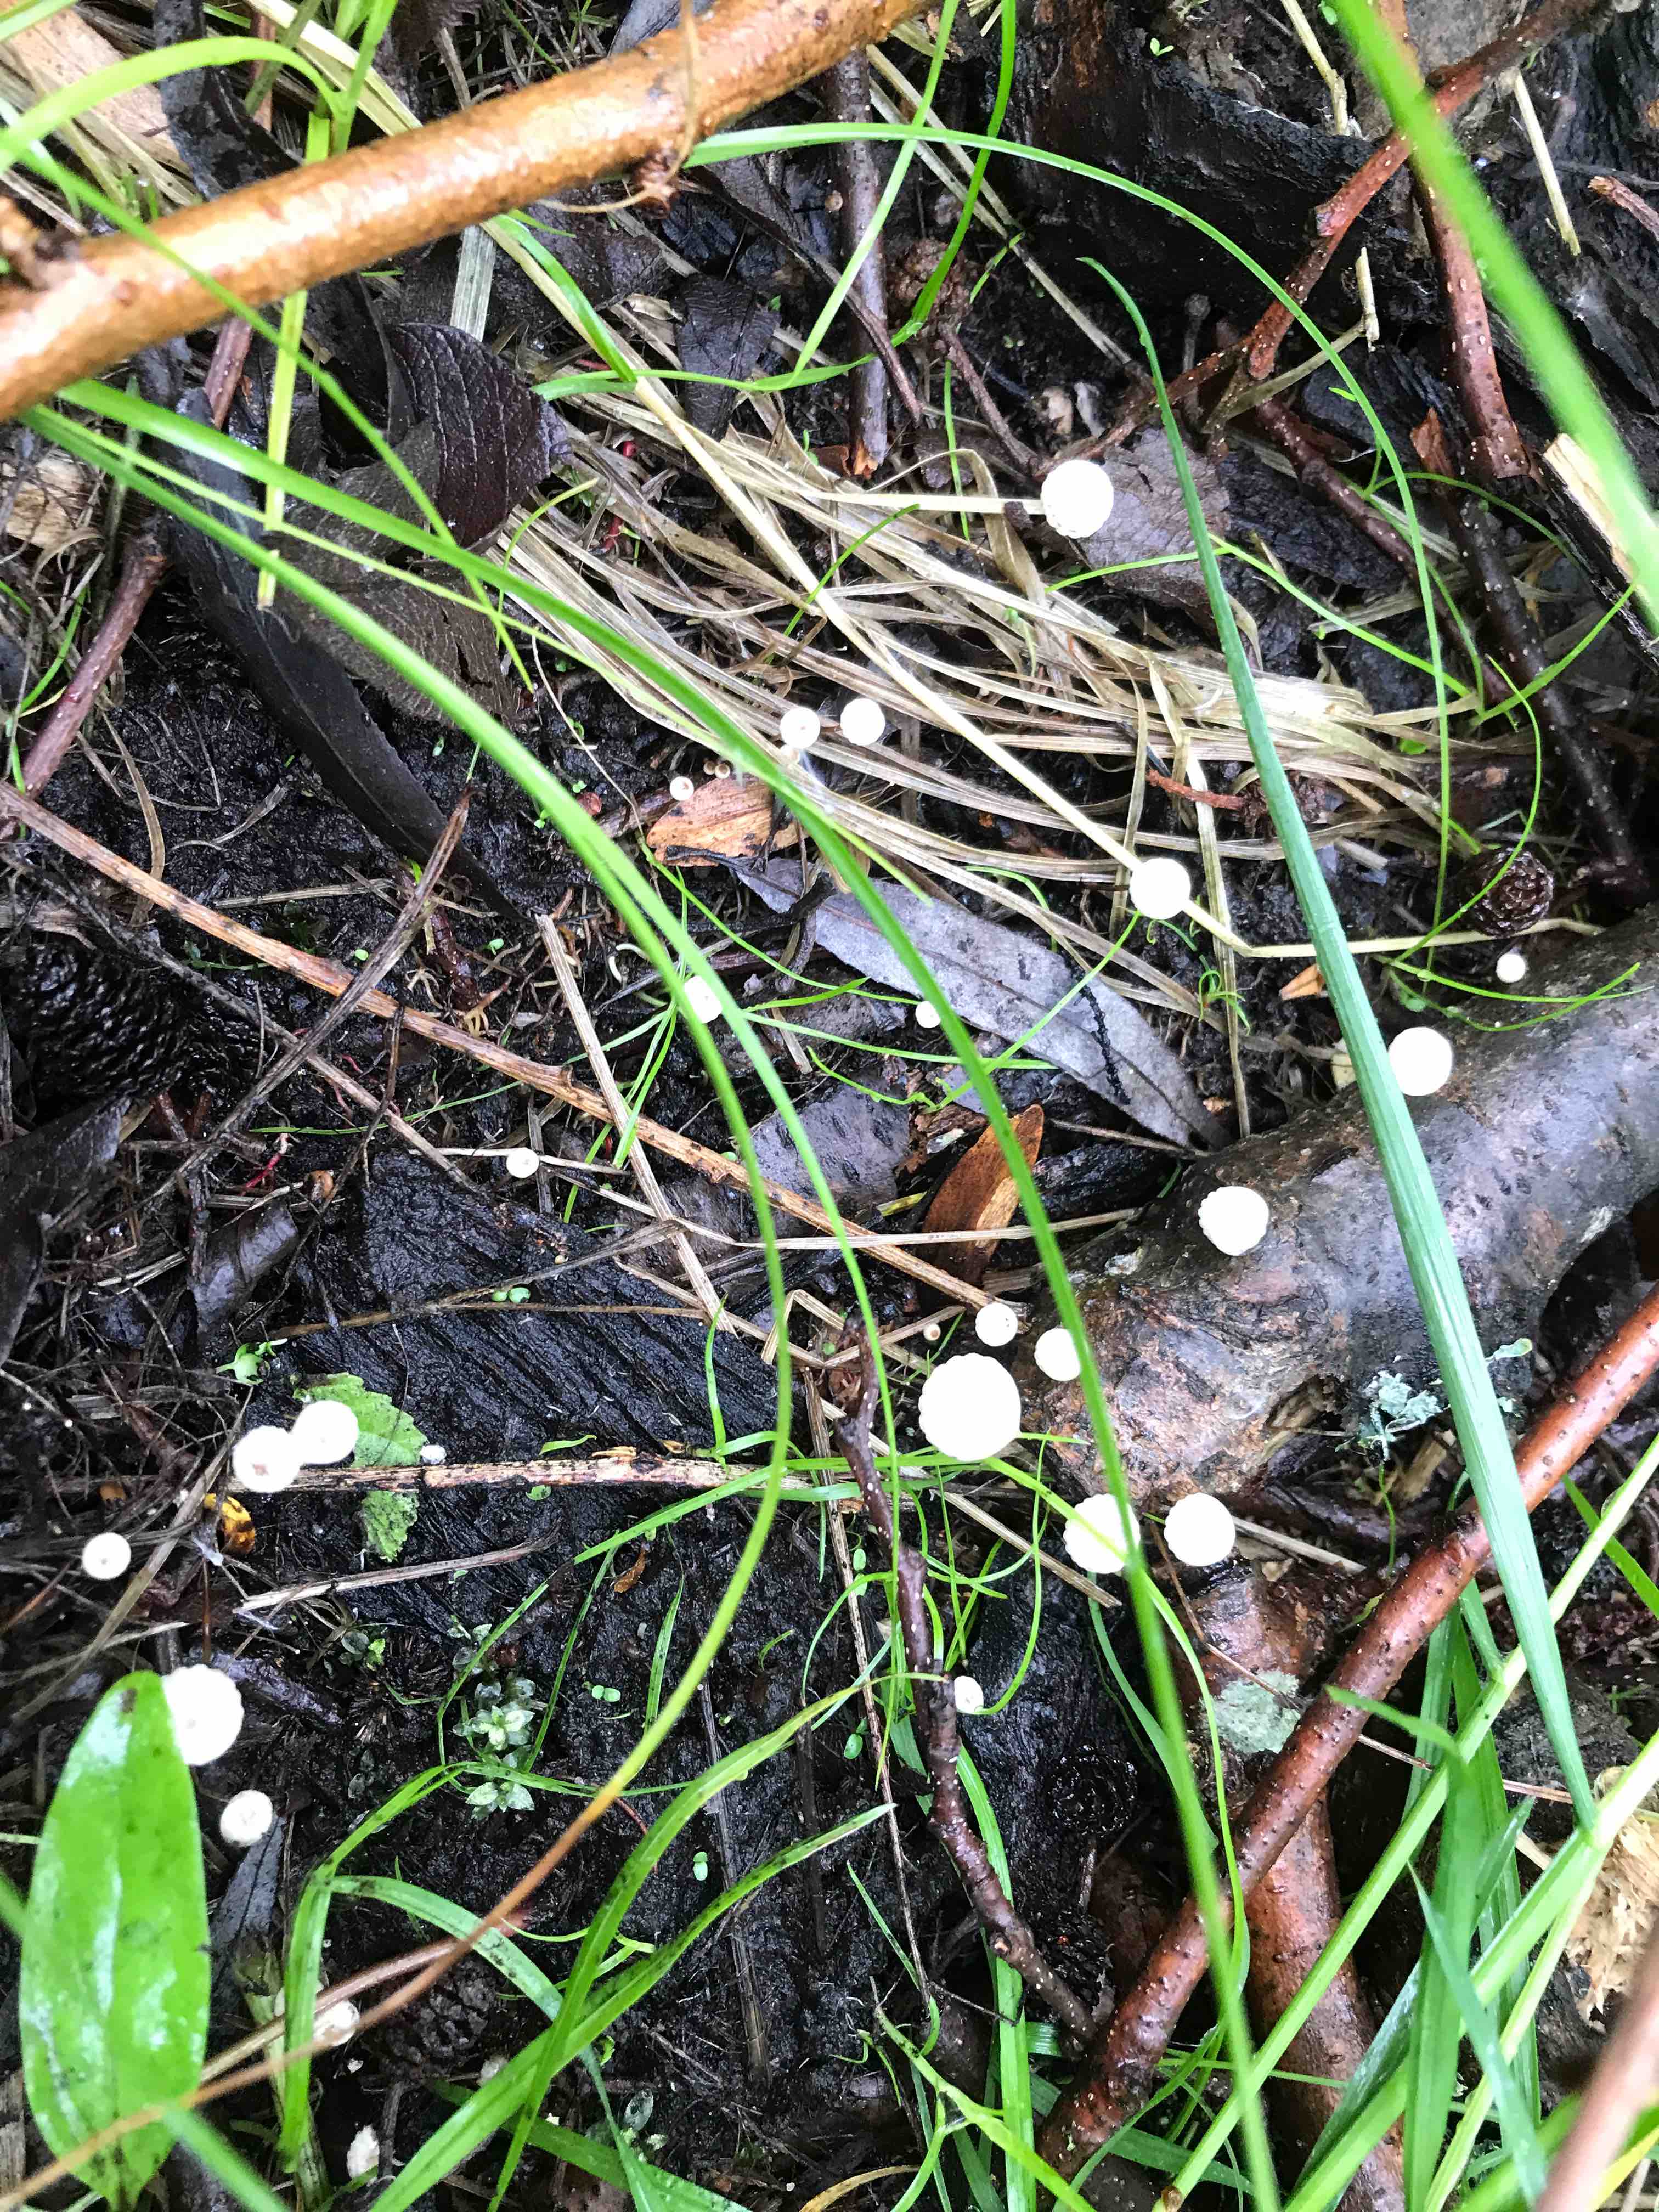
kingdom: Fungi
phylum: Basidiomycota
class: Agaricomycetes
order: Agaricales
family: Marasmiaceae
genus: Marasmius
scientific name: Marasmius rotula
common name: hjul-bruskhat
